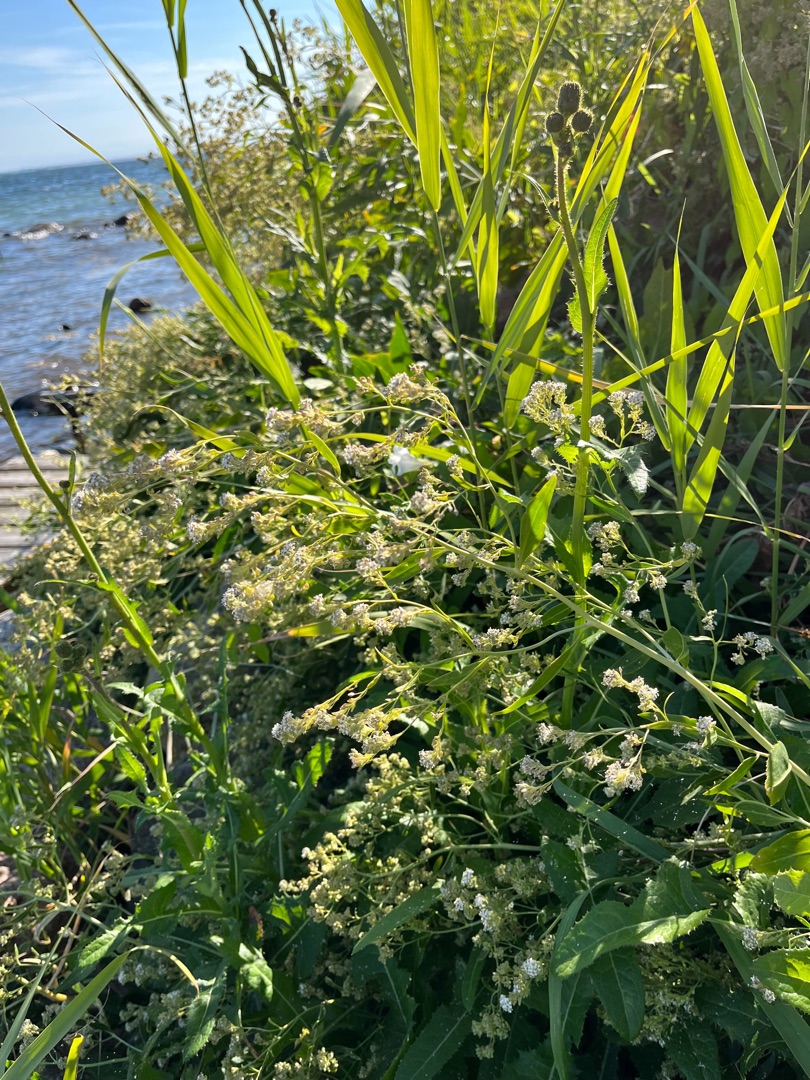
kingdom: Plantae
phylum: Tracheophyta
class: Magnoliopsida
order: Brassicales
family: Brassicaceae
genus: Lepidium
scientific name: Lepidium latifolium
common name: Strand-karse
